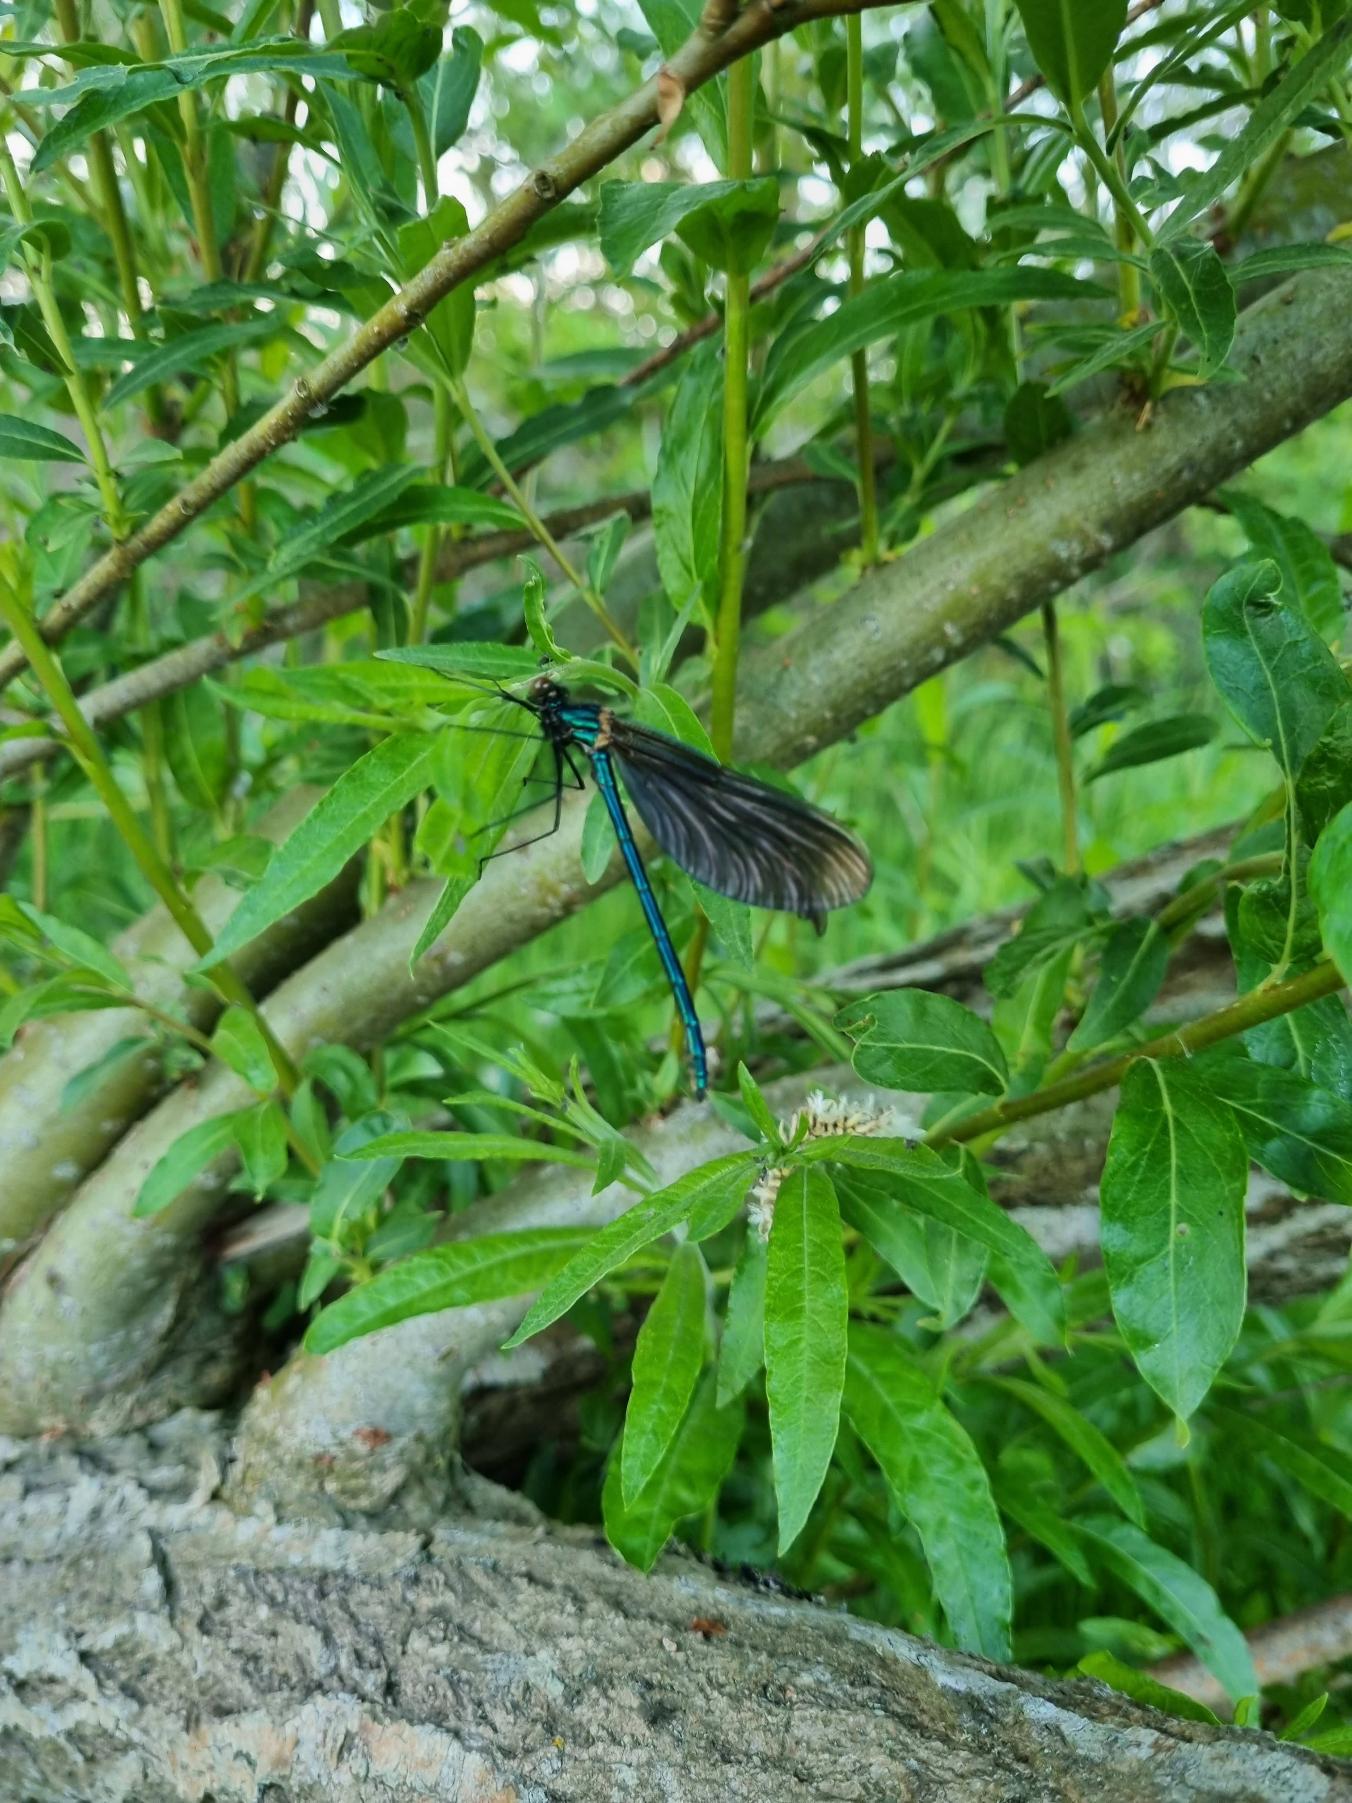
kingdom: Animalia
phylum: Arthropoda
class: Insecta
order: Odonata
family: Calopterygidae
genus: Calopteryx
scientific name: Calopteryx virgo
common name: Blåvinget pragtvandnymfe
